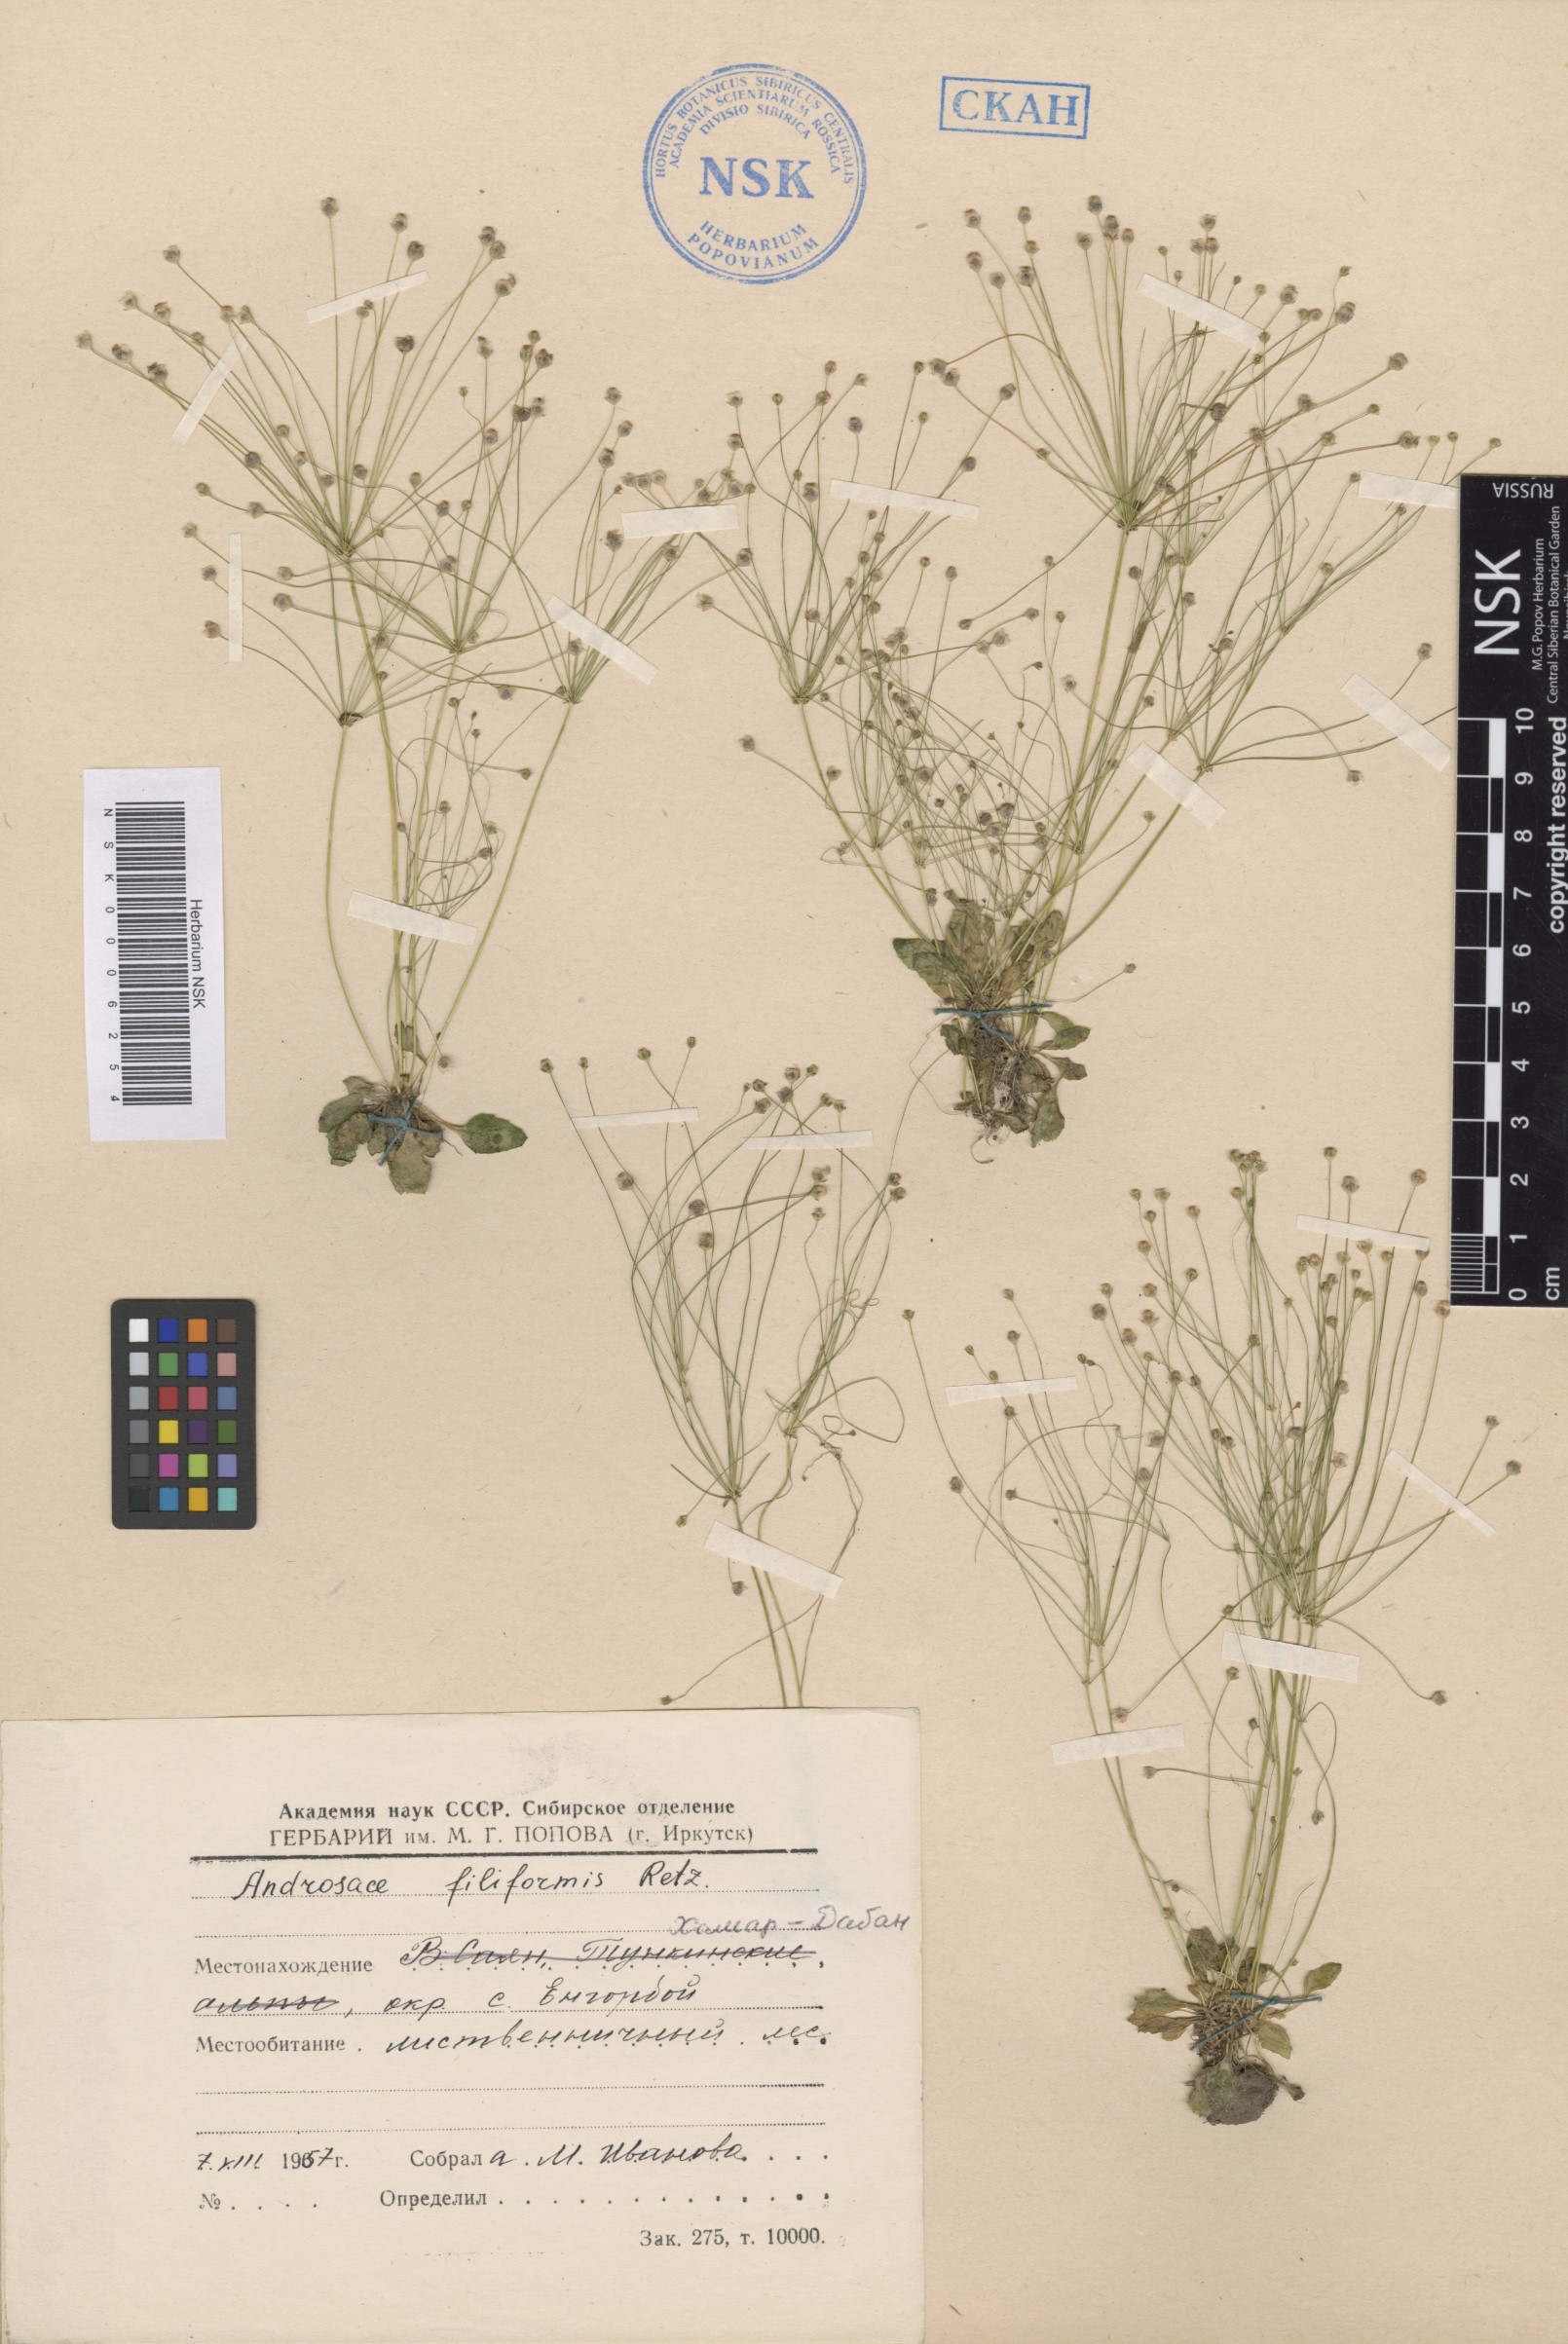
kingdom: Plantae
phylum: Tracheophyta
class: Magnoliopsida
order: Ericales
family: Primulaceae
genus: Androsace
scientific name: Androsace filiformis
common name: Filiform rock jasmine
